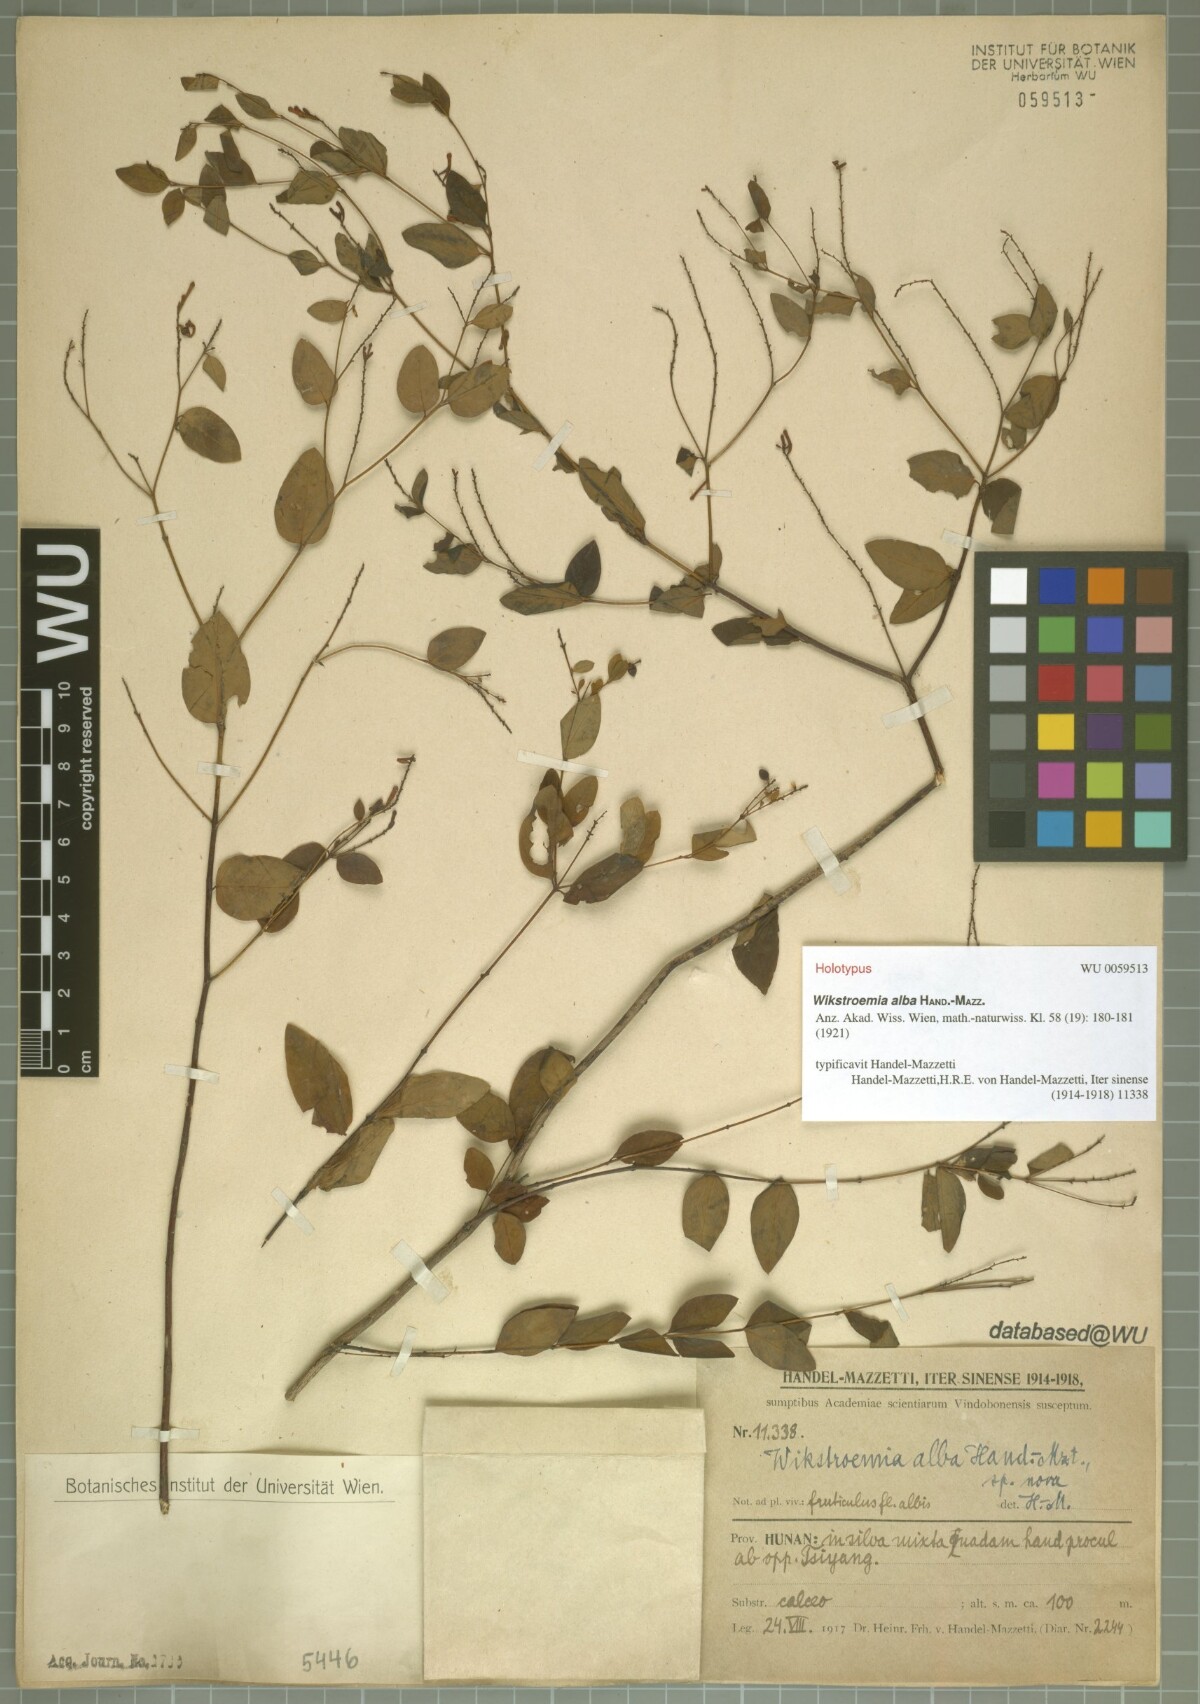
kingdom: Plantae
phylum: Tracheophyta
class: Magnoliopsida
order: Malvales
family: Thymelaeaceae
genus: Wikstroemia
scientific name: Wikstroemia trichotoma
